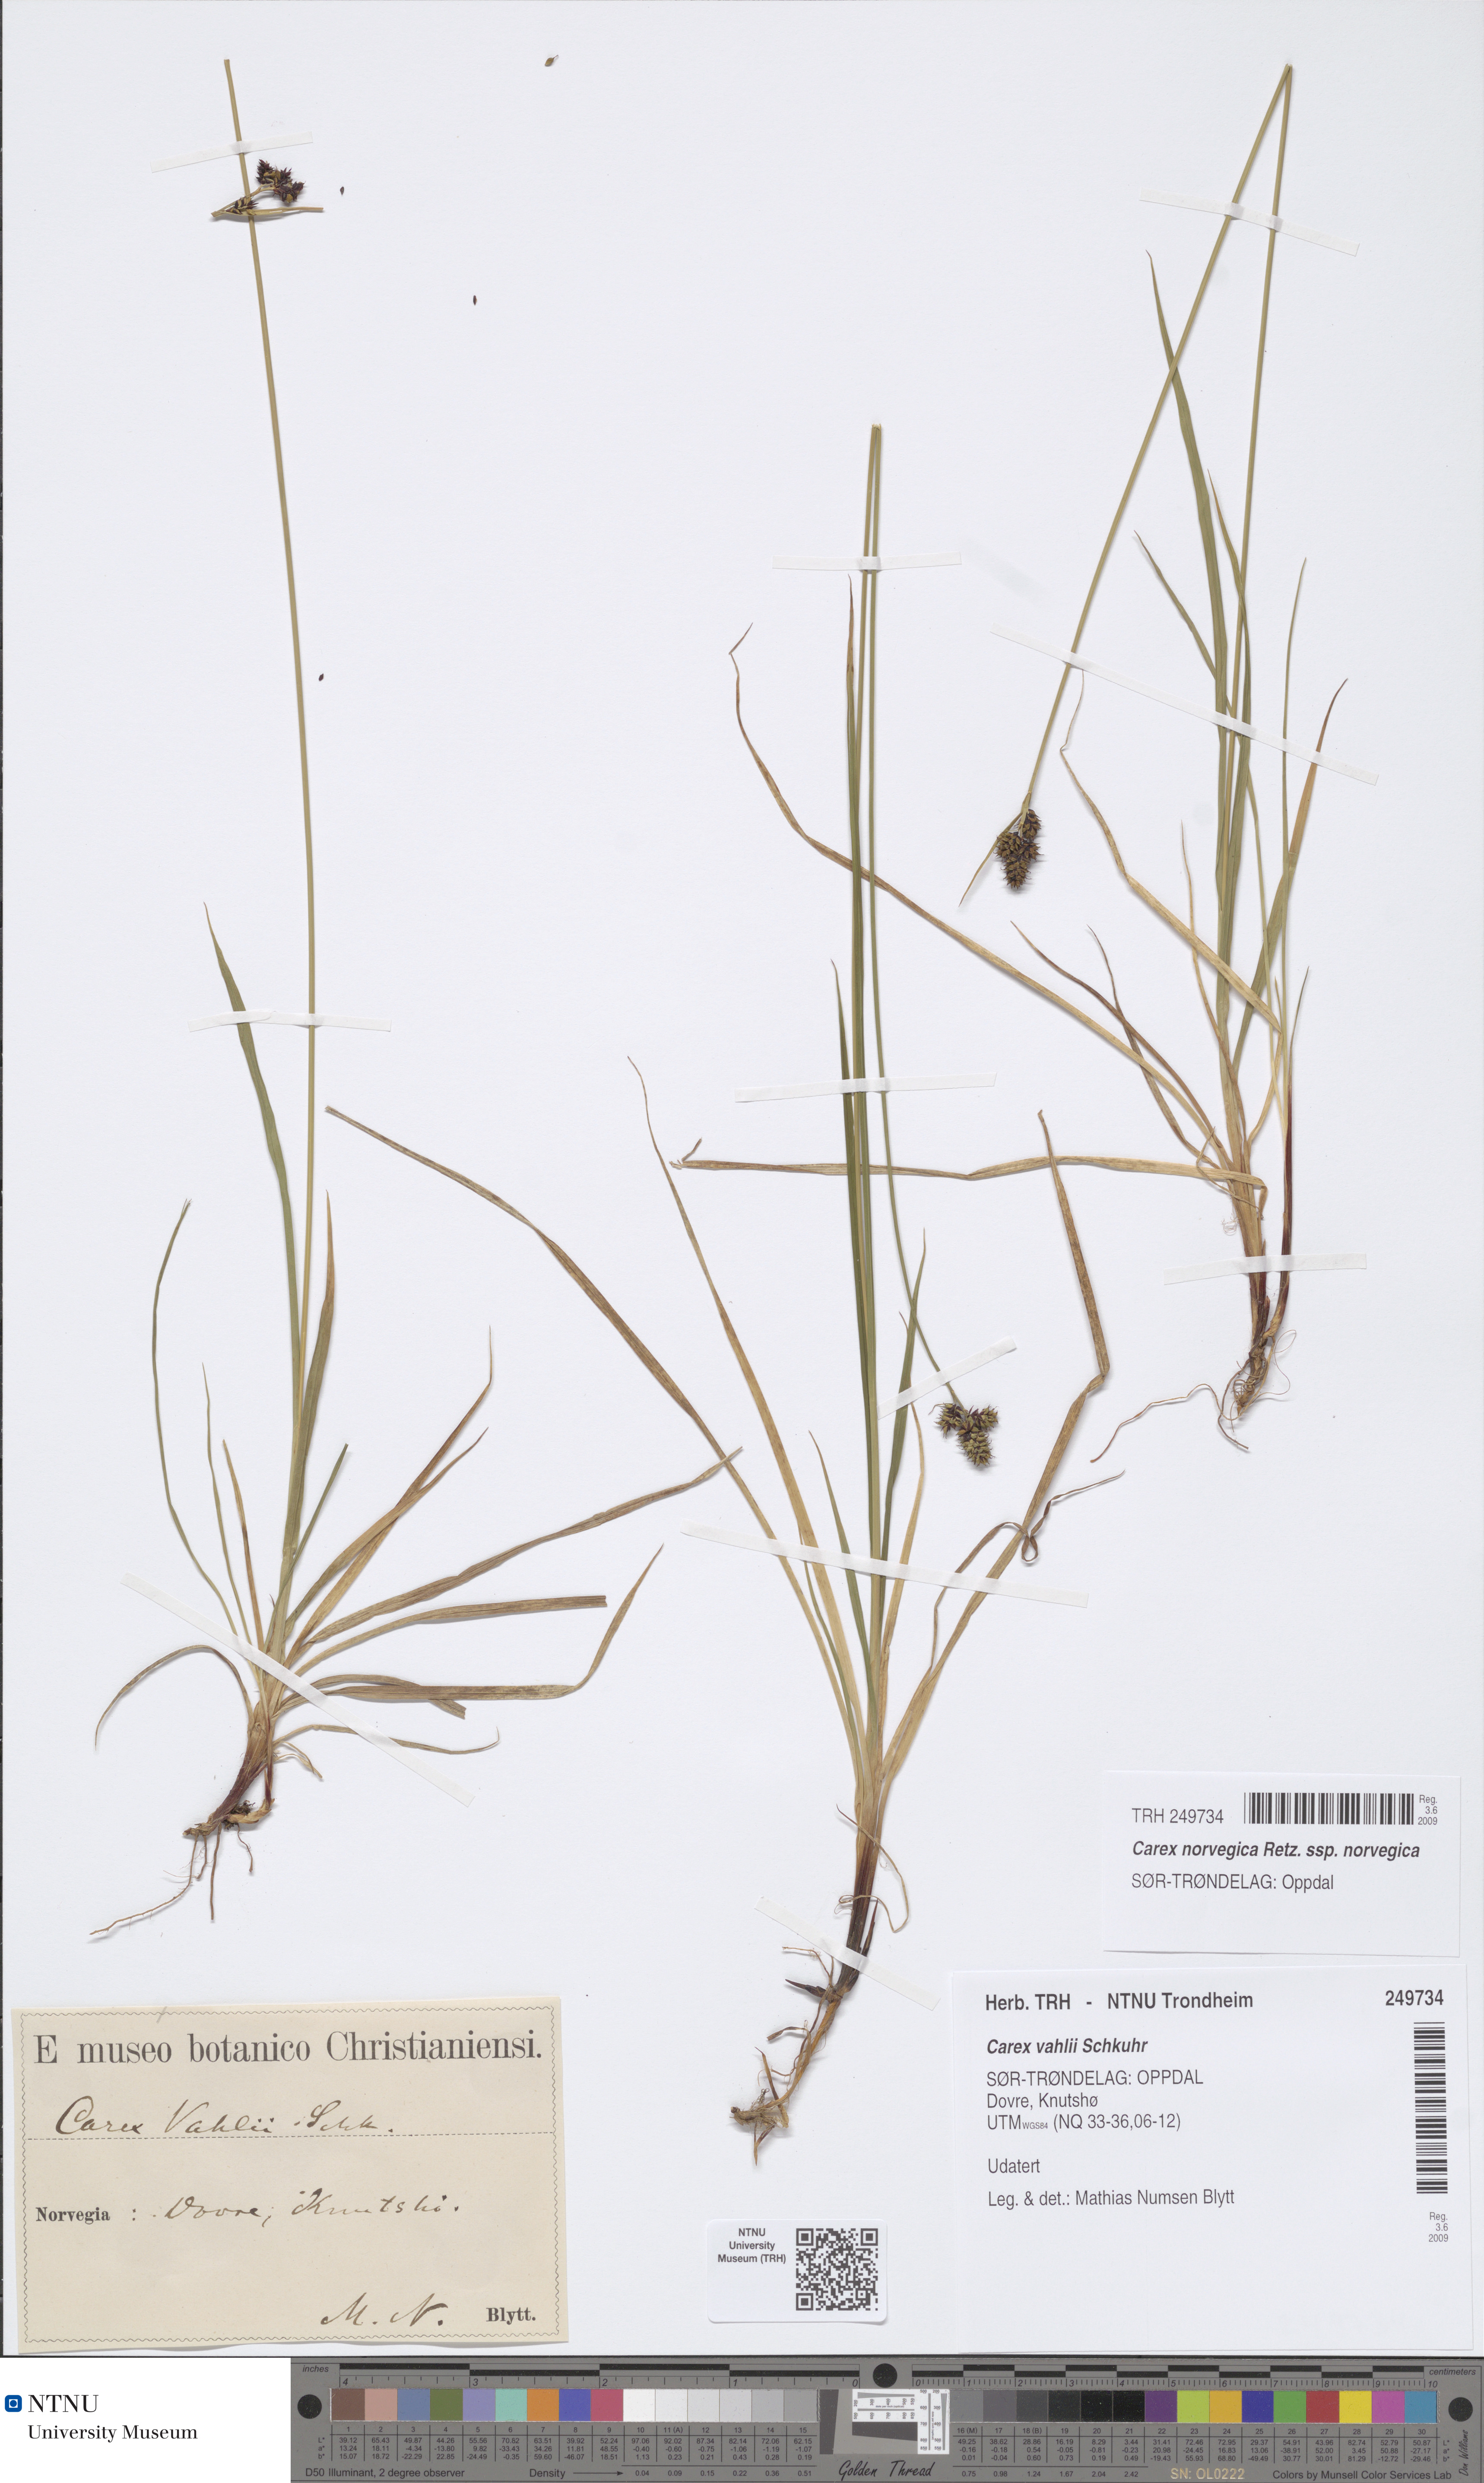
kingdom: Plantae
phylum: Tracheophyta
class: Liliopsida
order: Poales
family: Cyperaceae
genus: Carex
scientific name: Carex norvegica
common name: Close-headed alpine-sedge
